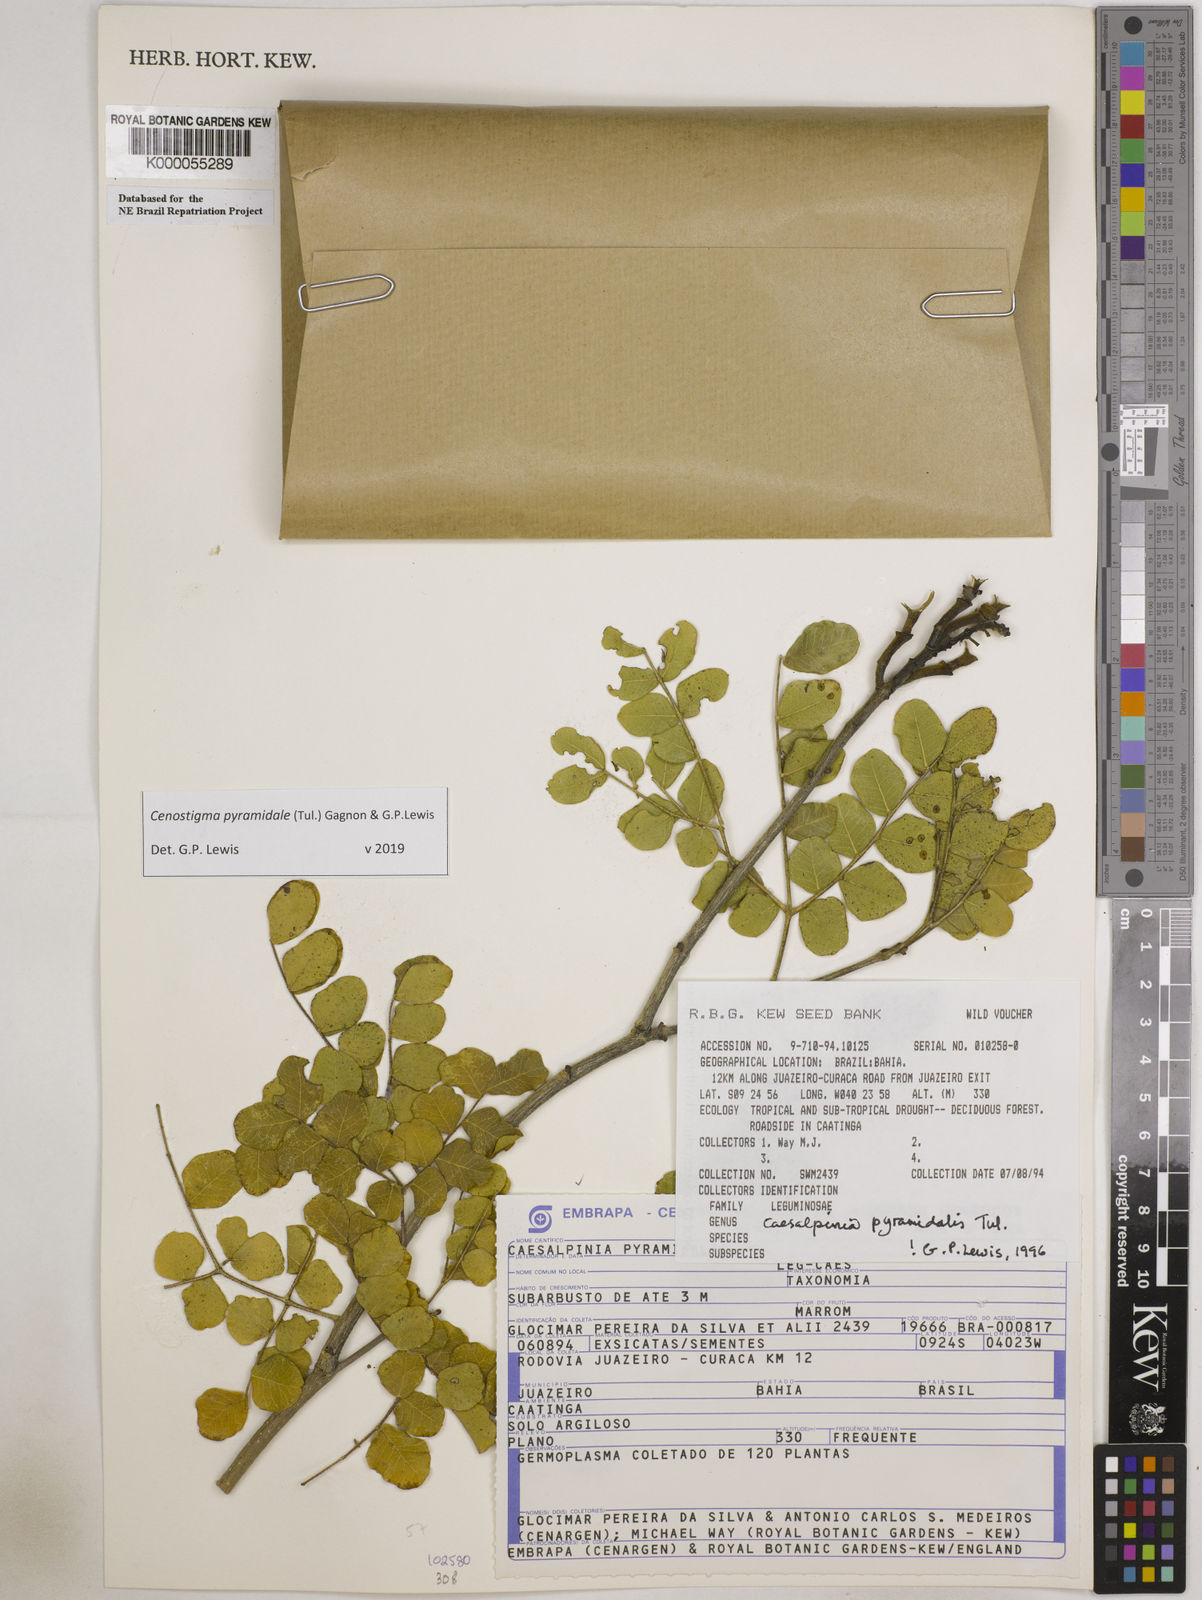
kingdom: Plantae
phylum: Tracheophyta
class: Magnoliopsida
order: Fabales
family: Fabaceae
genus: Cenostigma
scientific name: Cenostigma pyramidale
